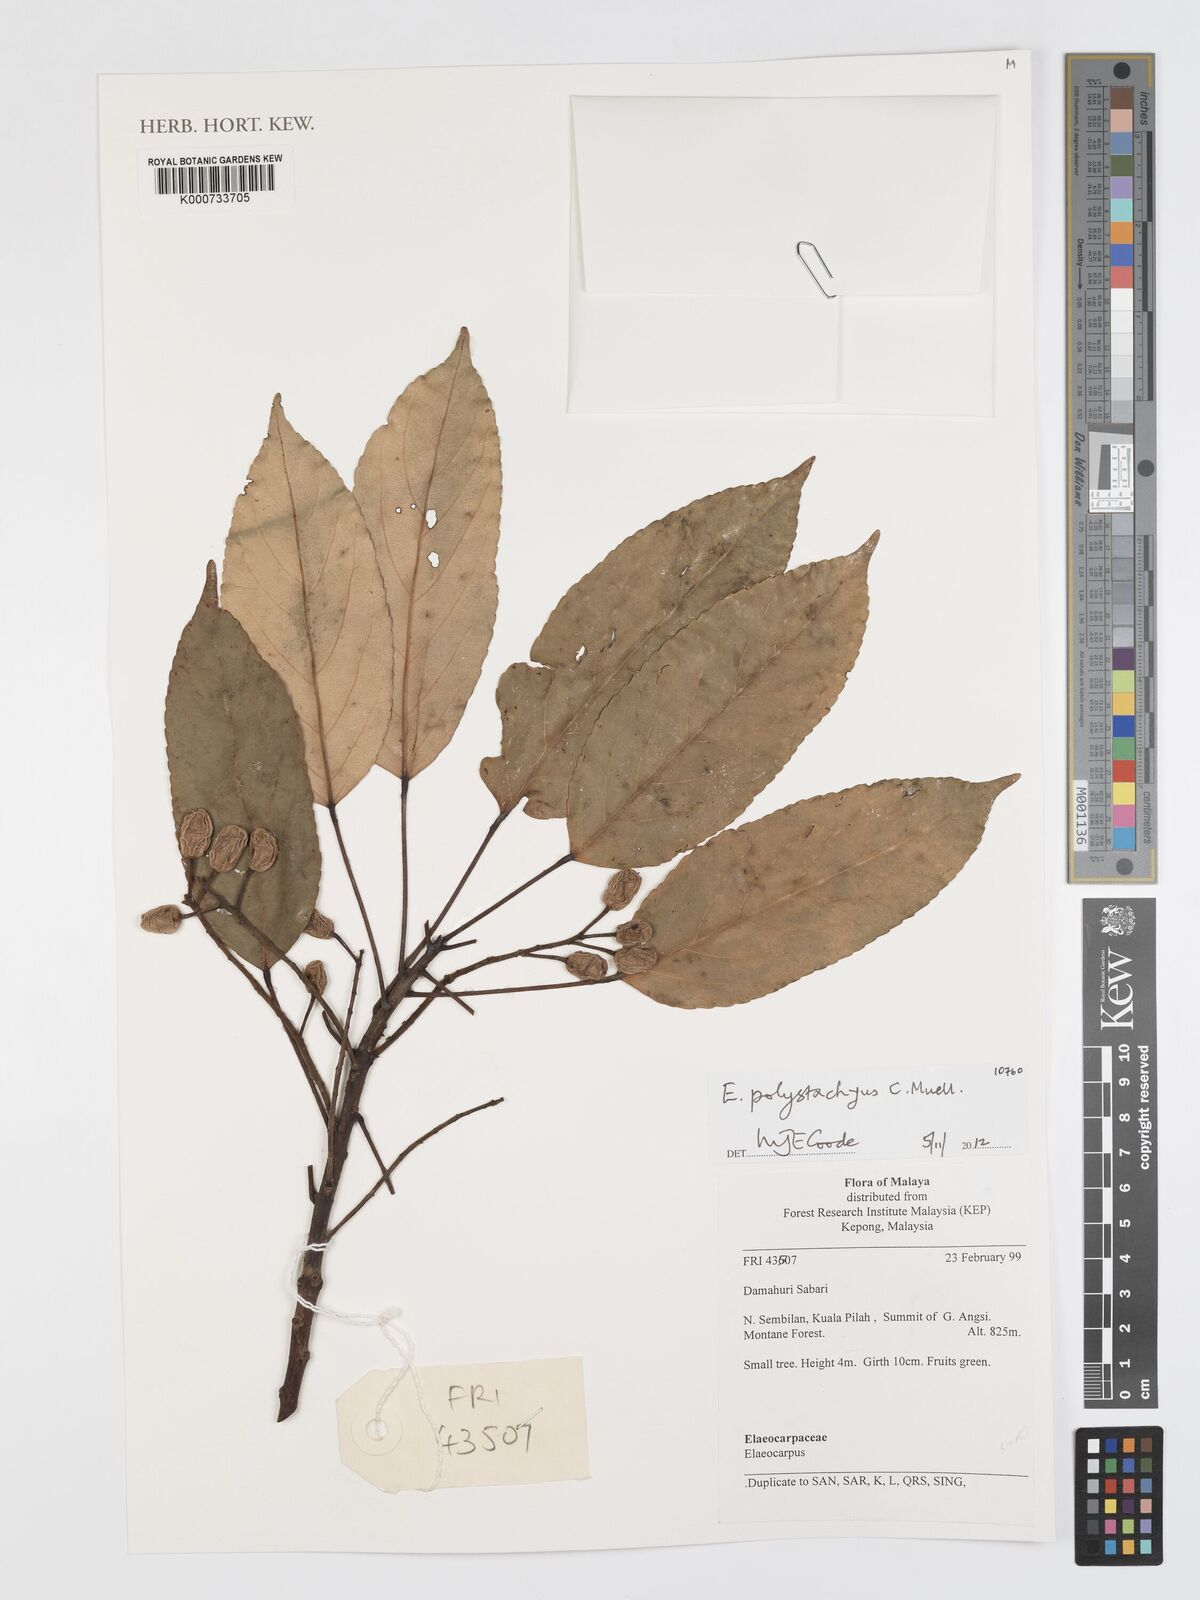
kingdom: Plantae
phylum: Tracheophyta
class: Magnoliopsida
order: Oxalidales
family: Elaeocarpaceae
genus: Elaeocarpus
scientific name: Elaeocarpus
